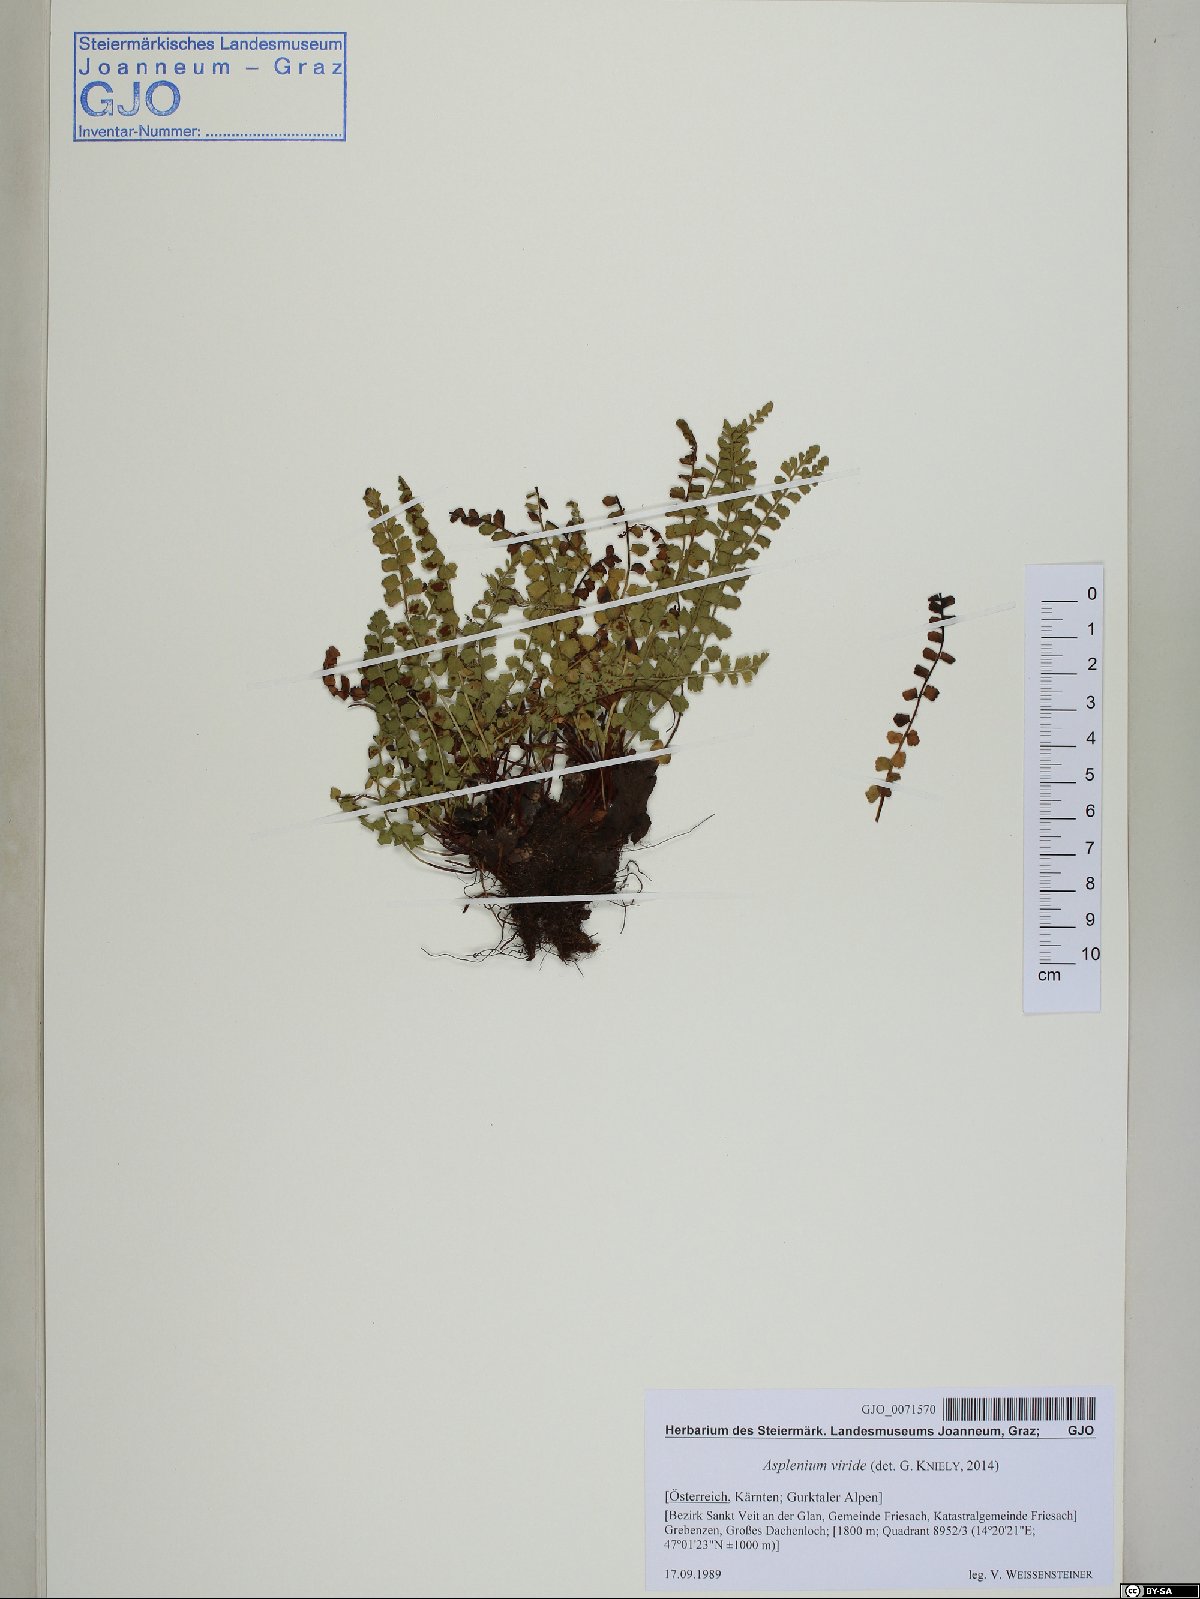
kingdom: Plantae
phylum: Tracheophyta
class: Polypodiopsida
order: Polypodiales
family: Aspleniaceae
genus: Asplenium
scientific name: Asplenium viride
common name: Green spleenwort
